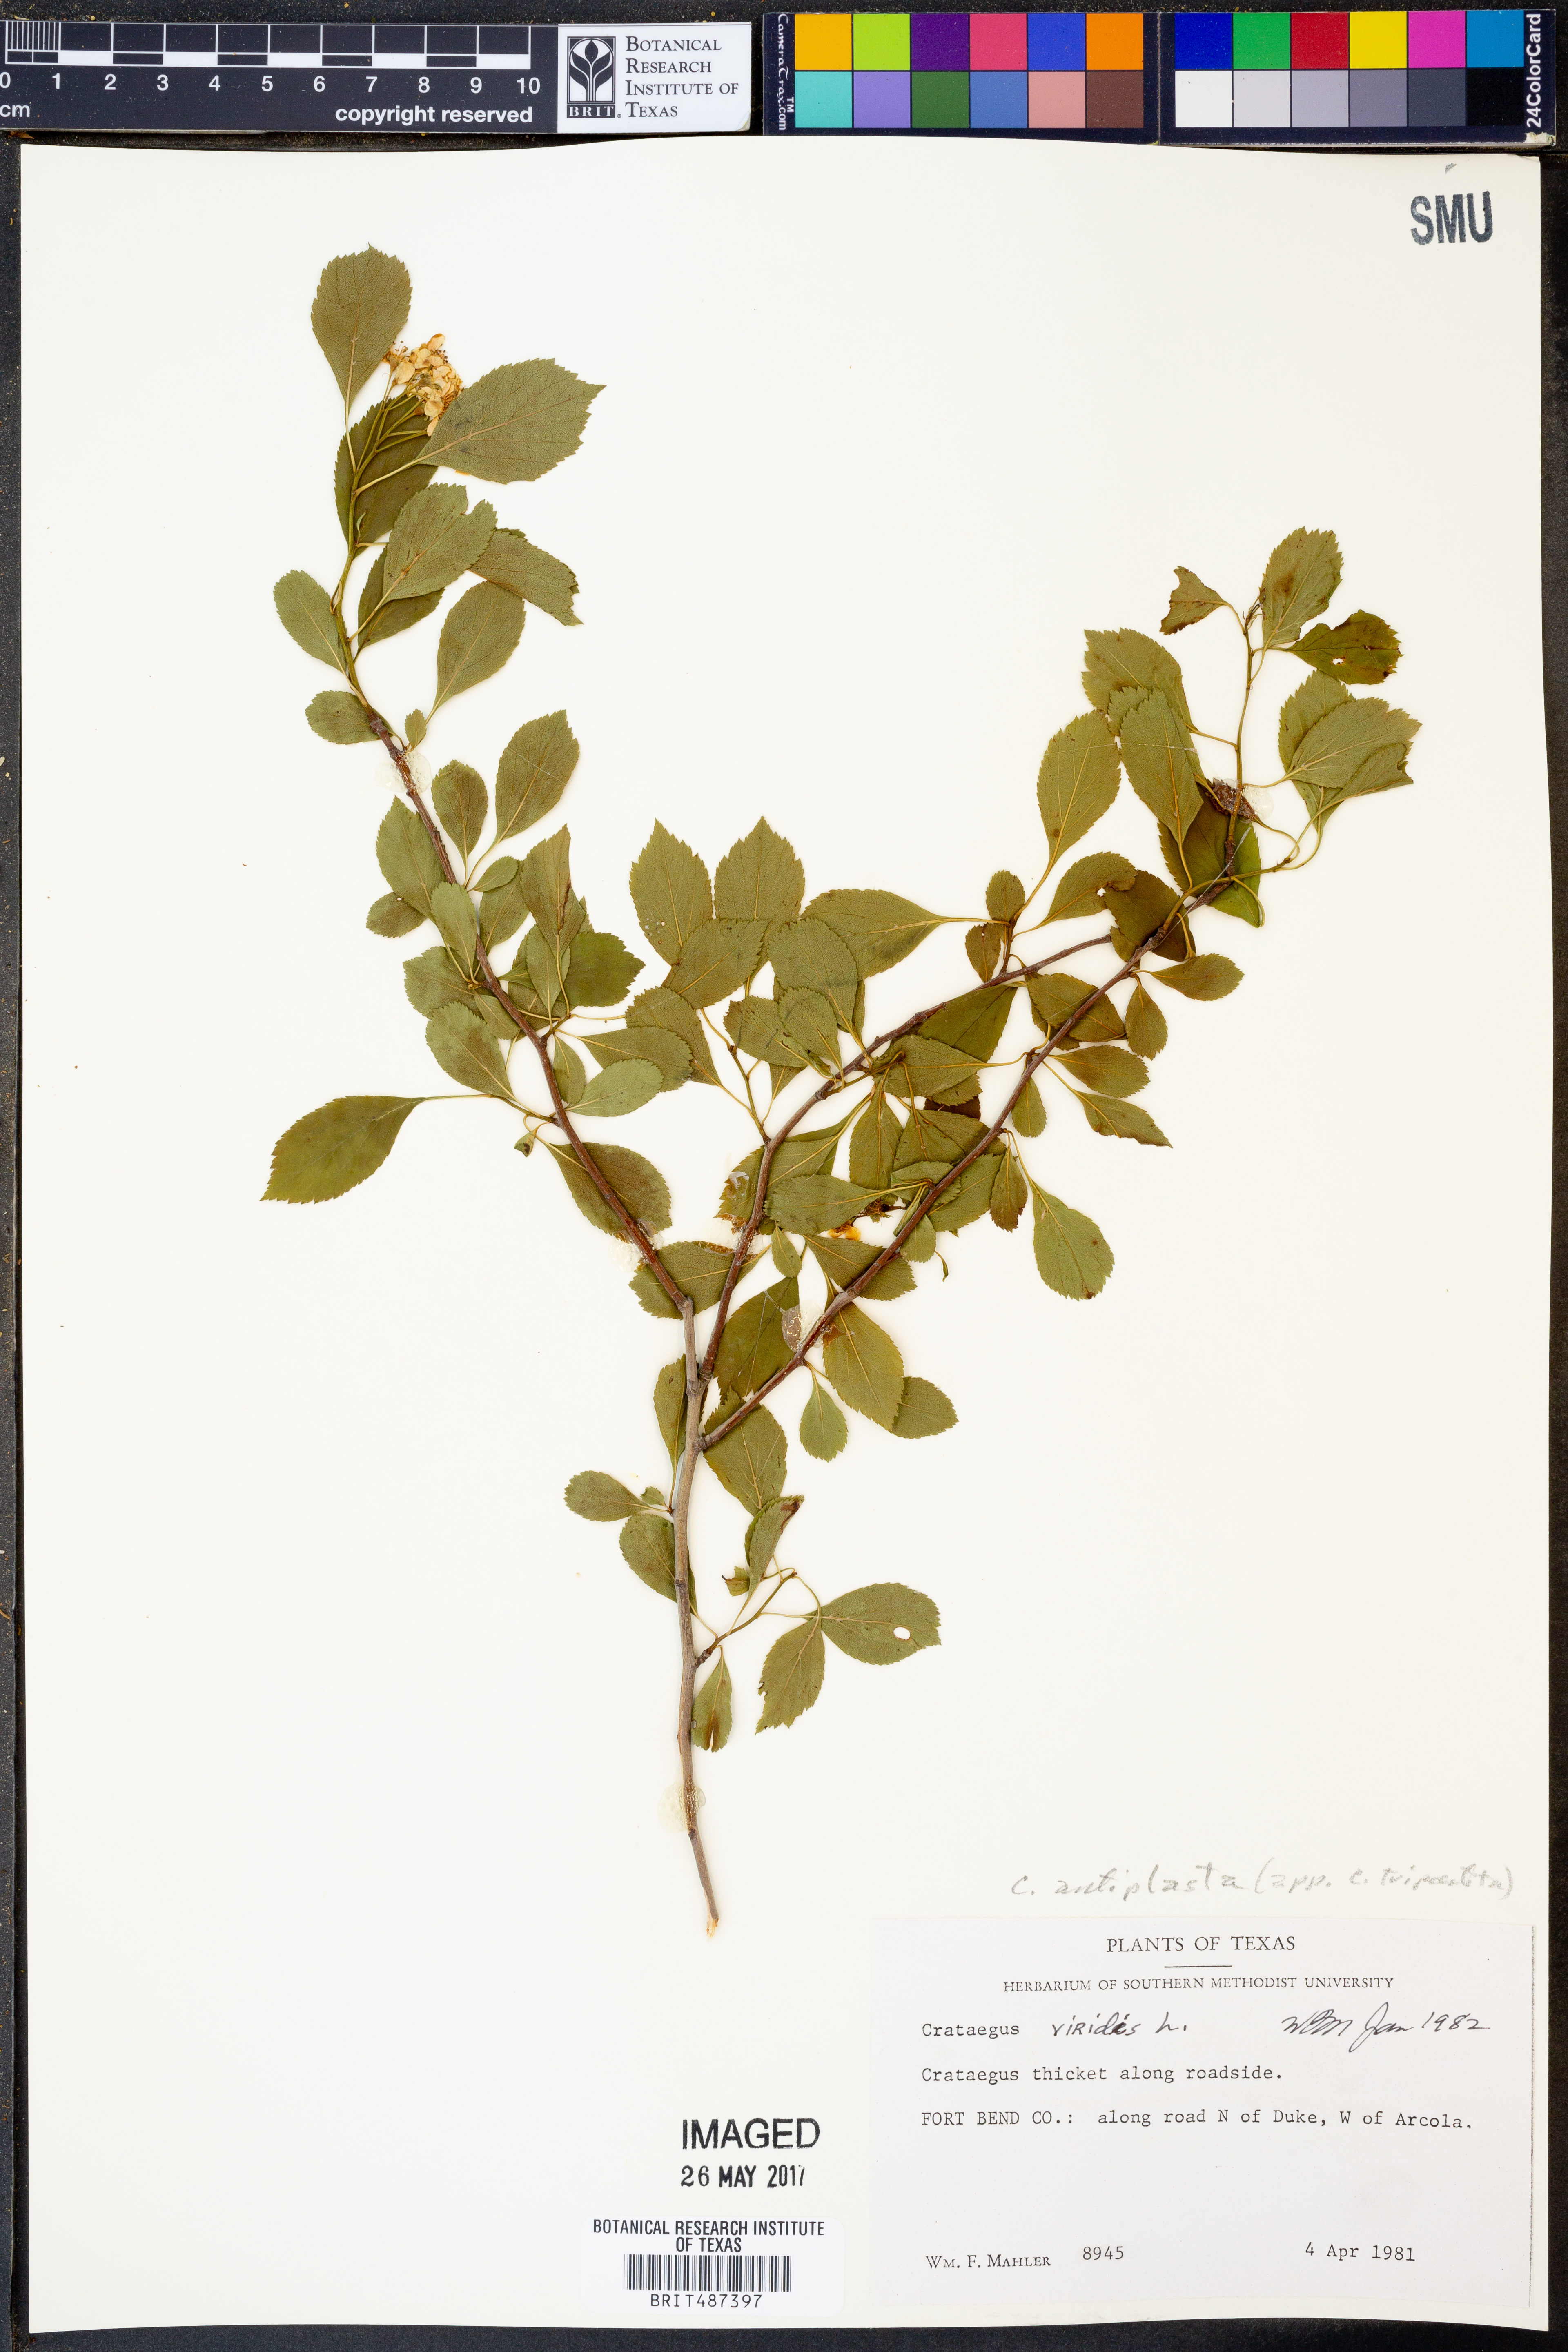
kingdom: Plantae
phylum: Tracheophyta
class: Magnoliopsida
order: Rosales
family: Rosaceae
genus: Crataegus
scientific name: Crataegus anamesa
